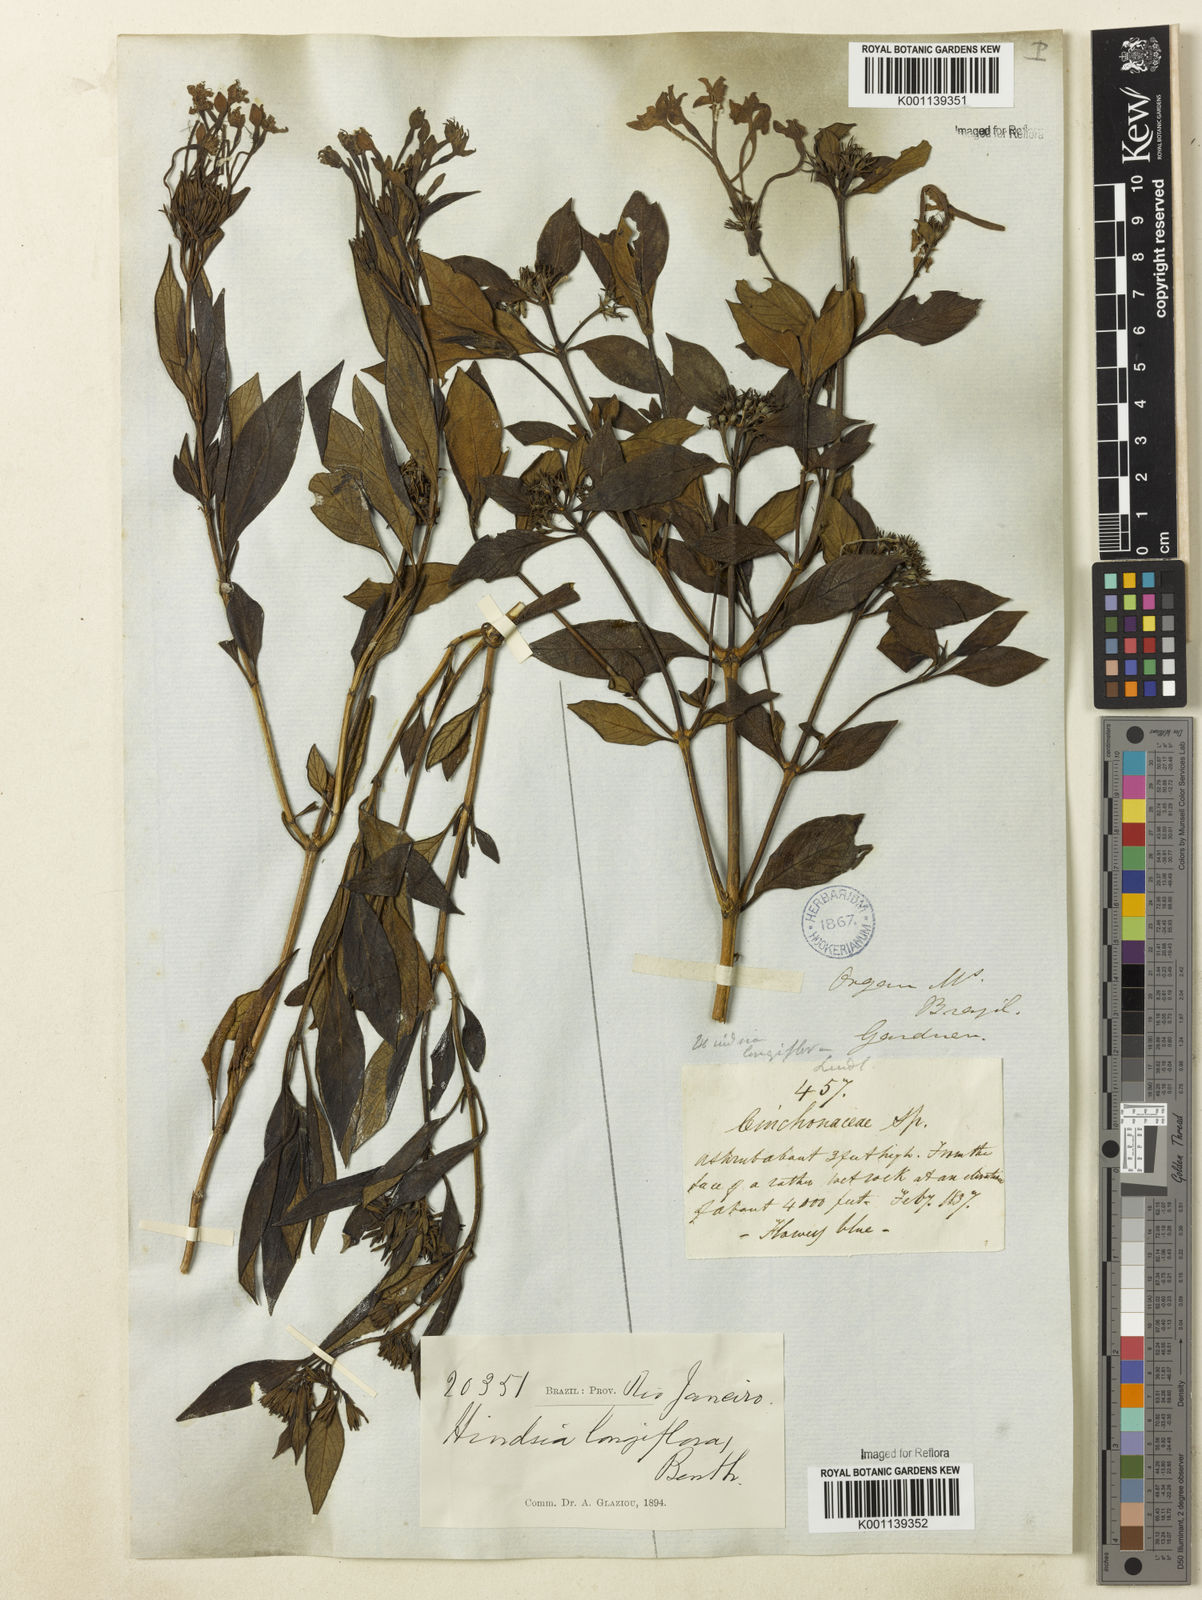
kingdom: Plantae
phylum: Tracheophyta
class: Magnoliopsida
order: Gentianales
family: Rubiaceae
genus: Hindsia
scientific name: Hindsia
